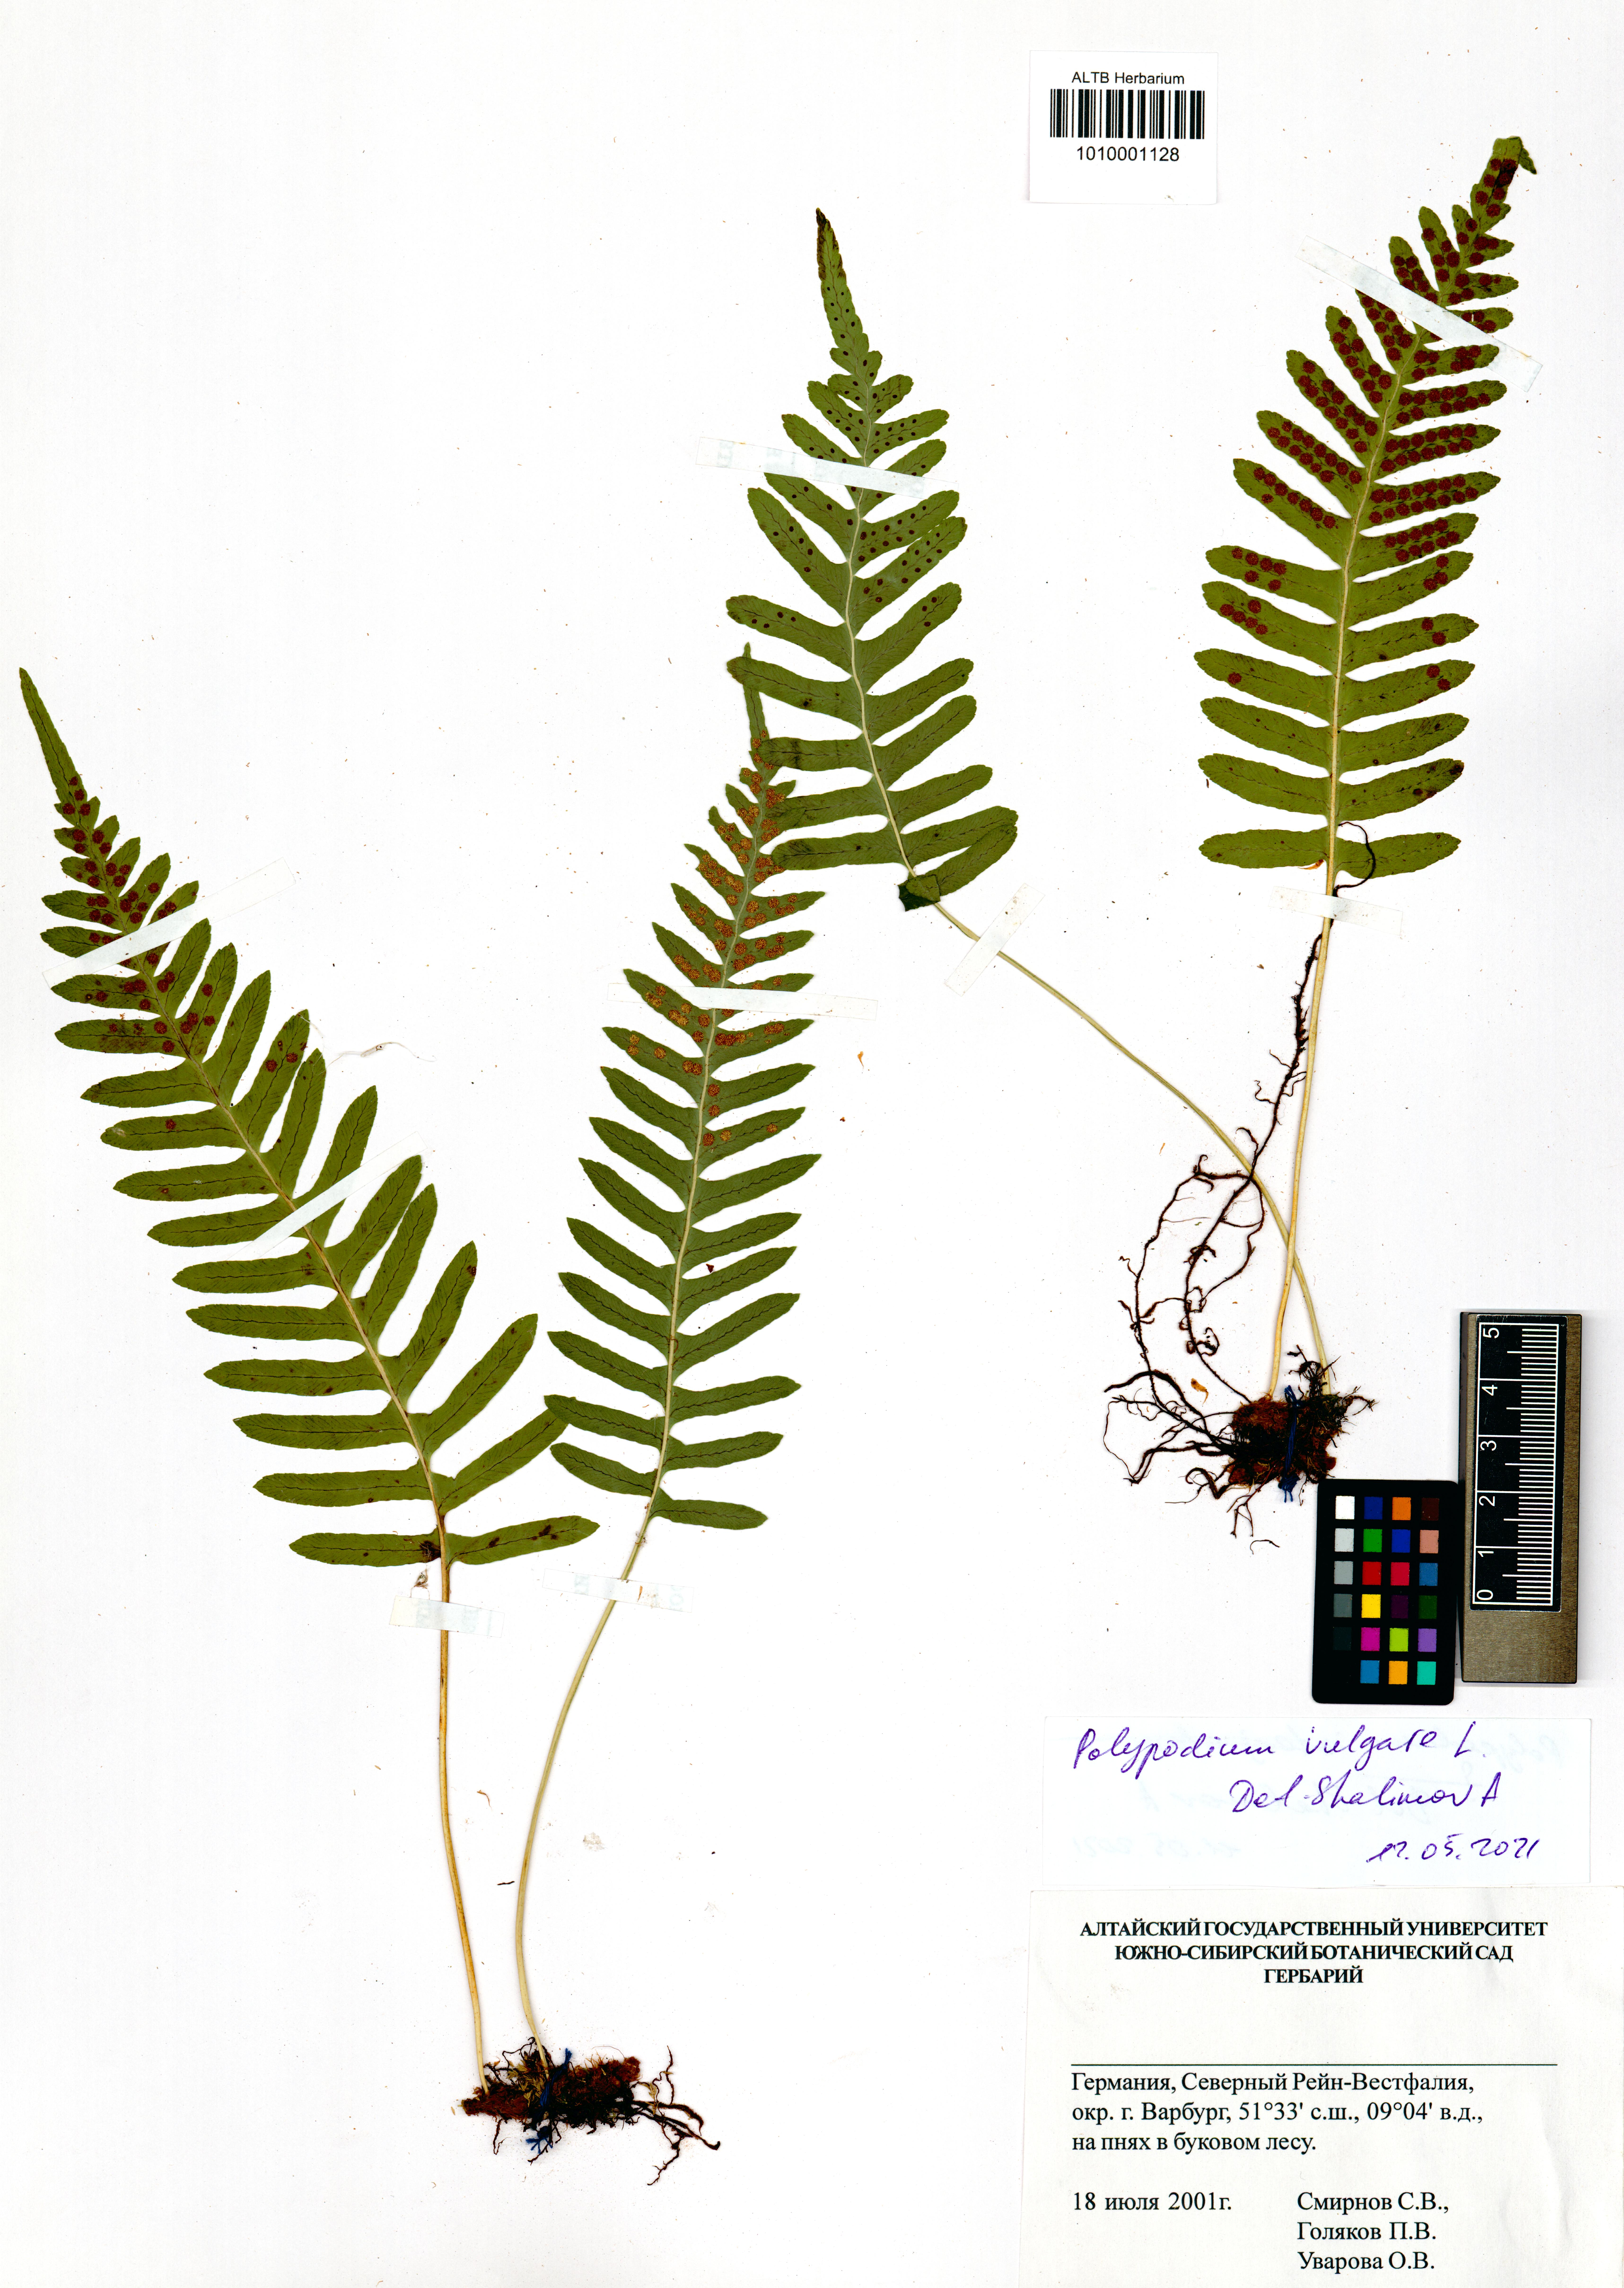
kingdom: Plantae
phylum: Tracheophyta
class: Polypodiopsida
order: Polypodiales
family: Polypodiaceae
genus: Polypodium
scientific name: Polypodium vulgare
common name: Common polypody
